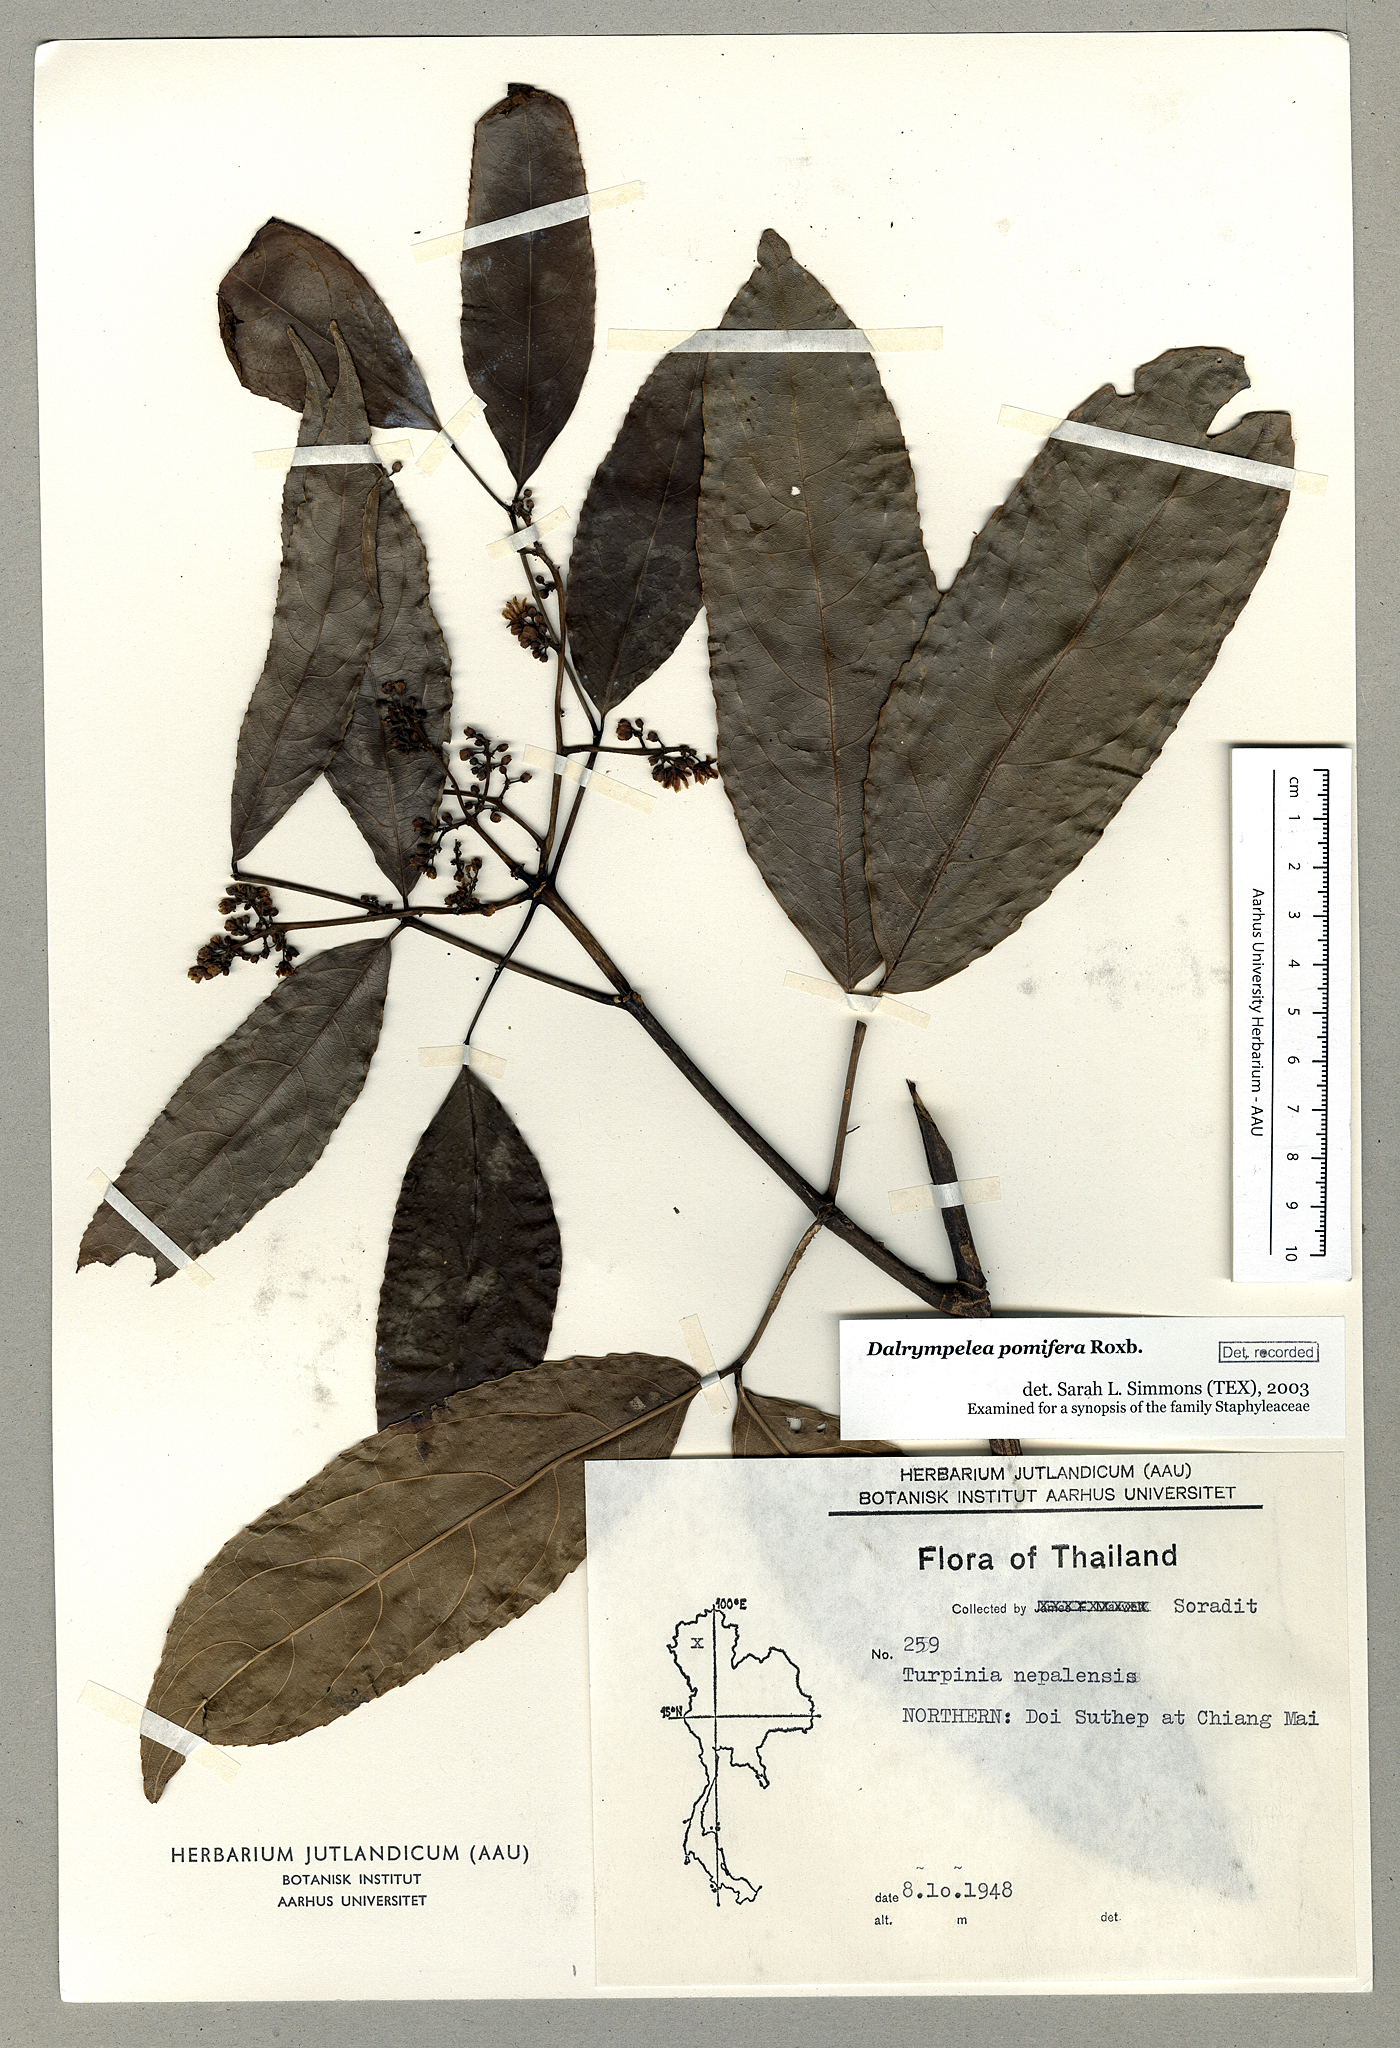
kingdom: Plantae
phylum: Tracheophyta
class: Magnoliopsida
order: Crossosomatales
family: Staphyleaceae
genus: Dalrympelea
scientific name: Dalrympelea pomifera
